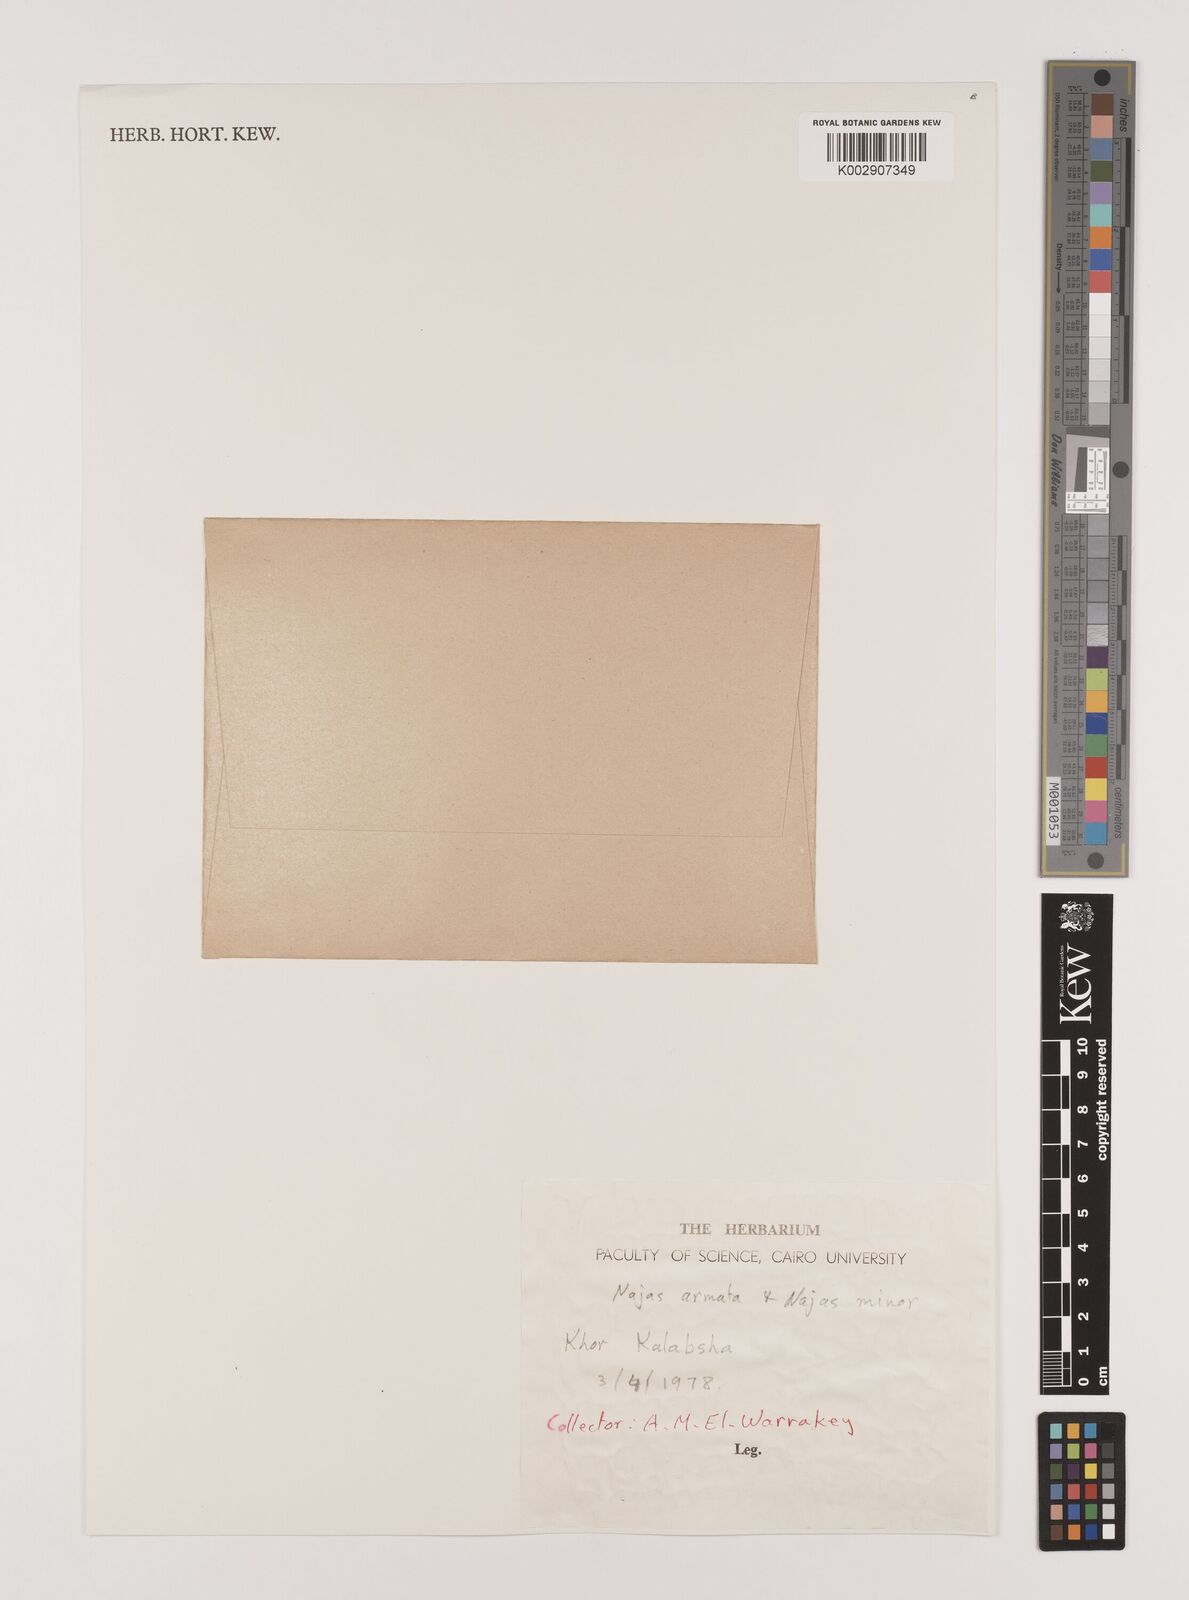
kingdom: Plantae
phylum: Tracheophyta
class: Liliopsida
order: Alismatales
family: Hydrocharitaceae
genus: Najas
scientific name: Najas marina
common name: Holly-leaved naiad
